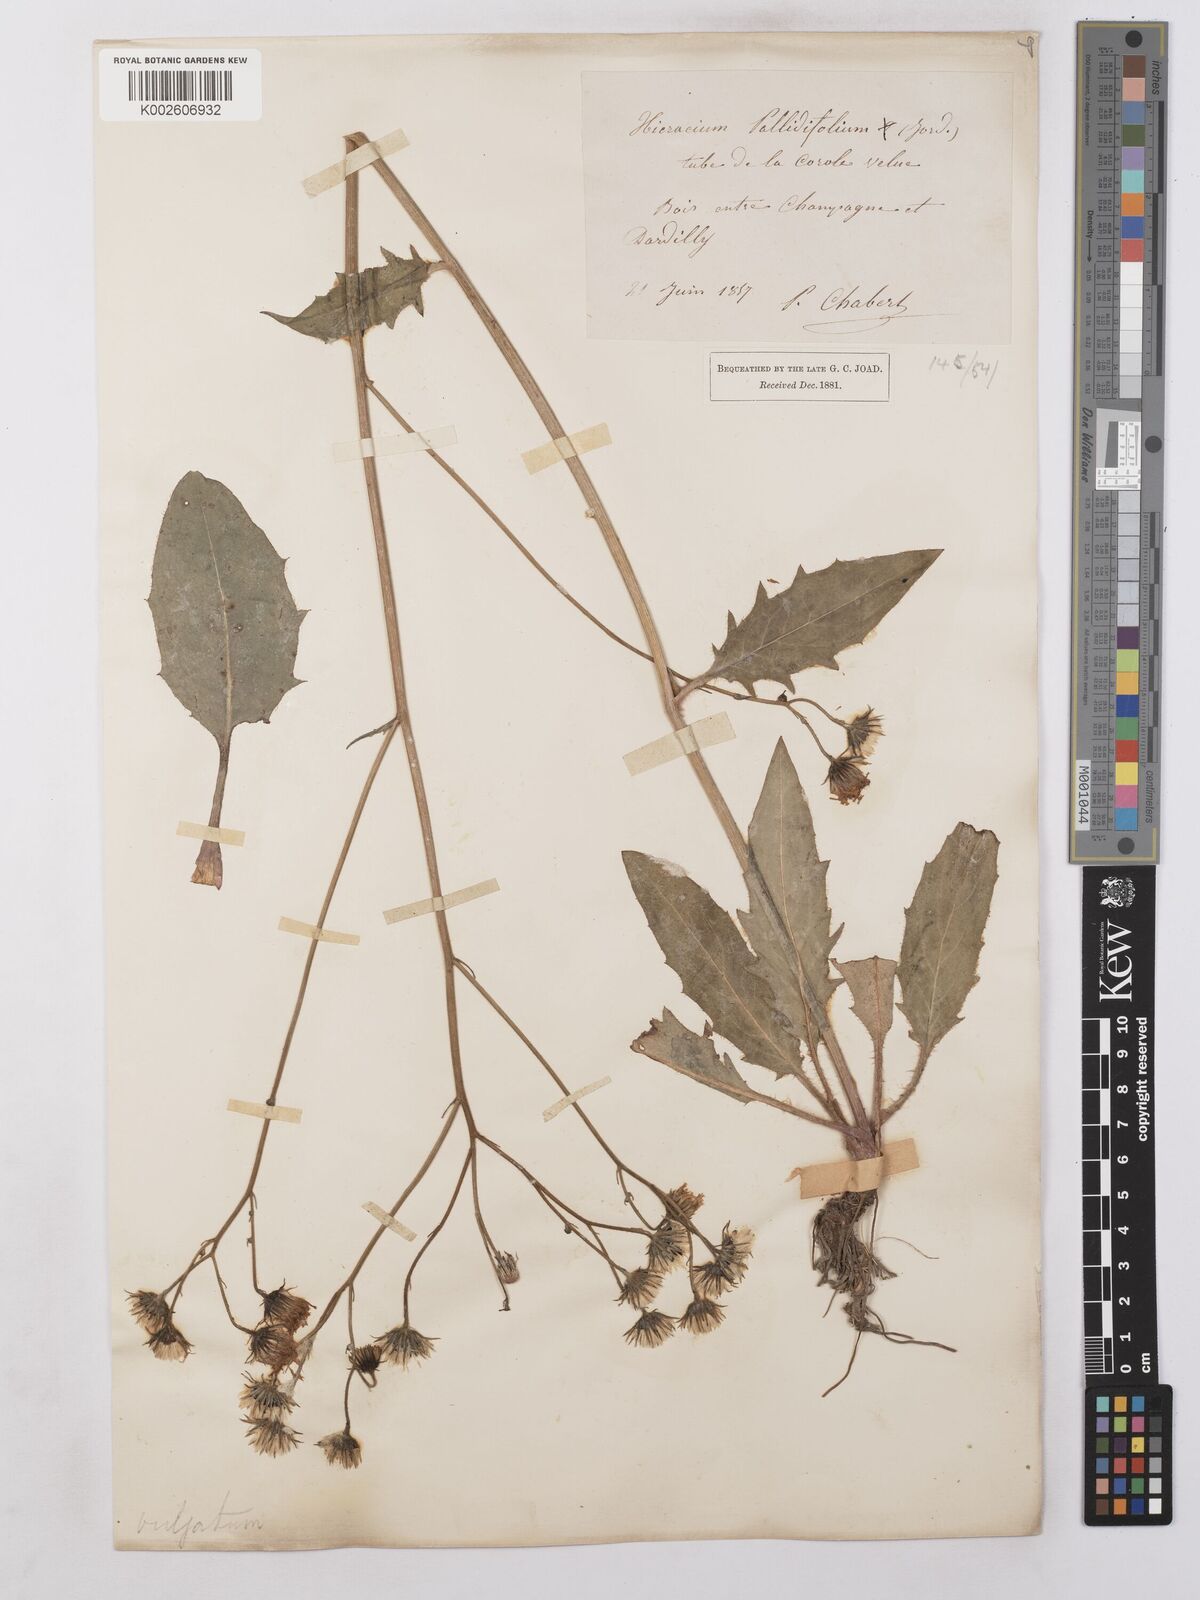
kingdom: Plantae
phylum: Tracheophyta
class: Magnoliopsida
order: Asterales
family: Asteraceae
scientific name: Asteraceae
